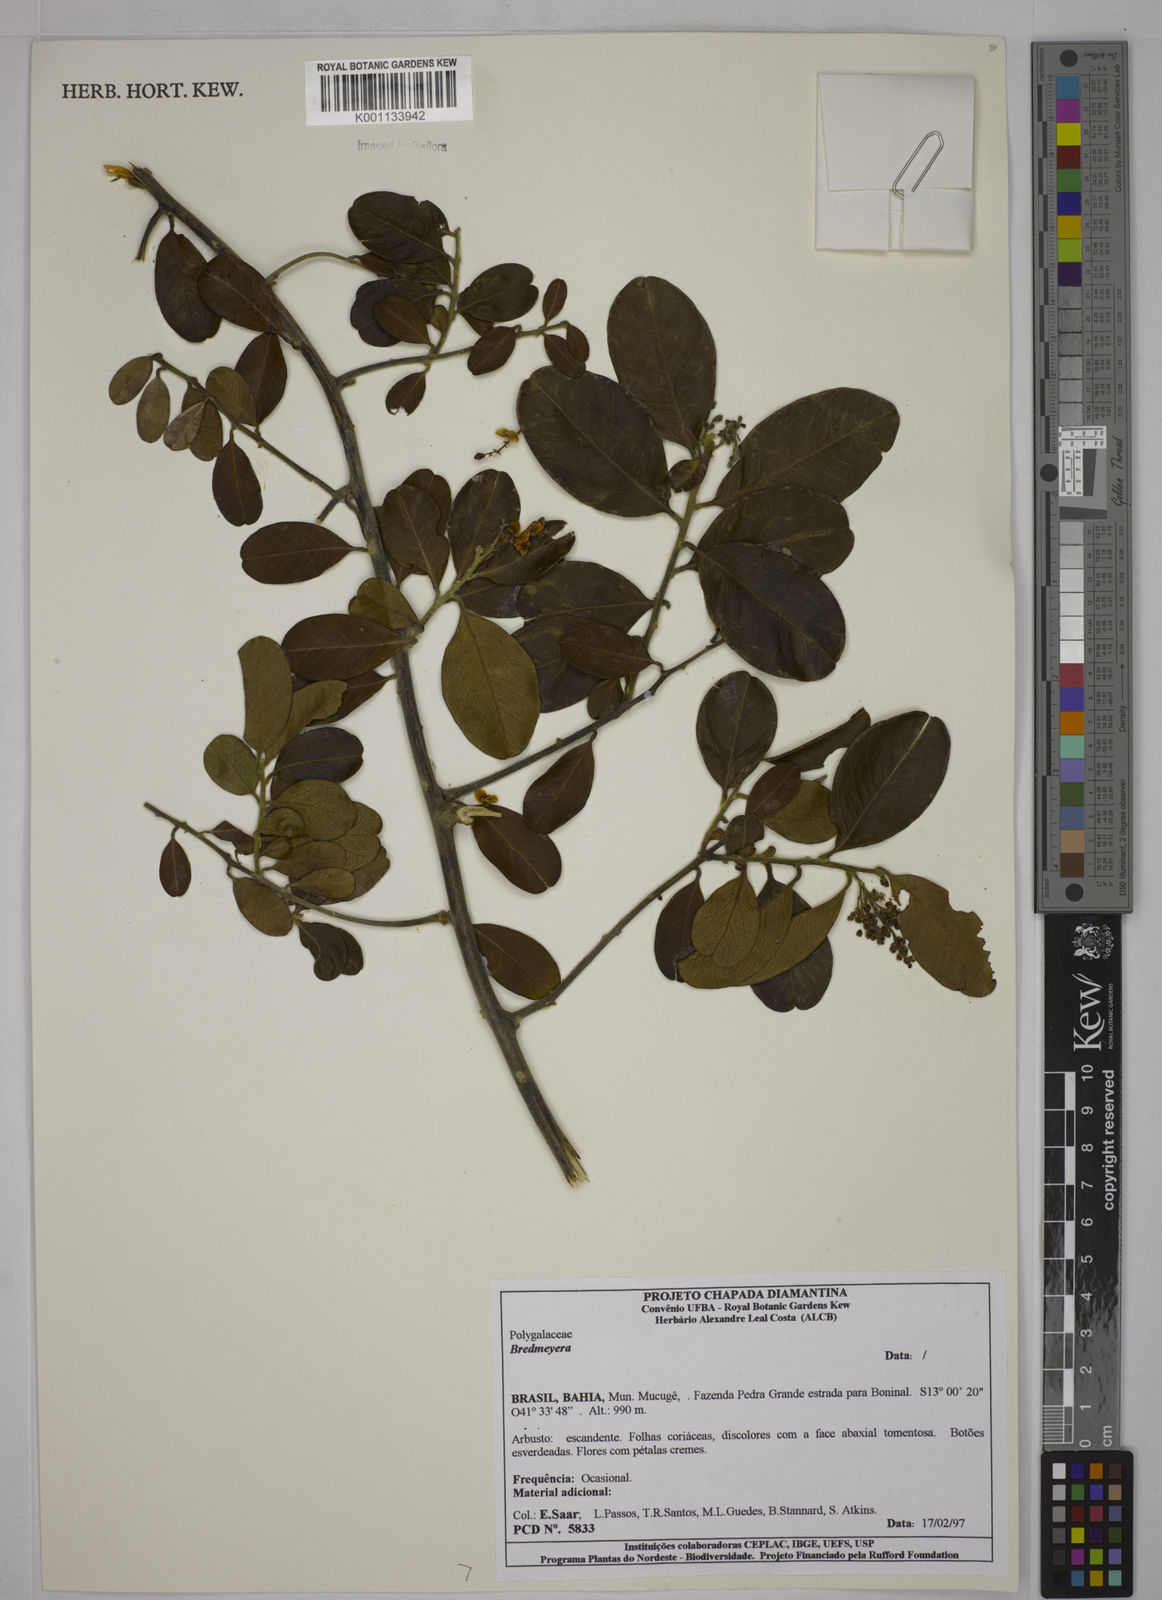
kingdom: Plantae
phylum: Tracheophyta
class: Magnoliopsida
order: Fabales
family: Polygalaceae
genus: Bredemeyera
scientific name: Bredemeyera
